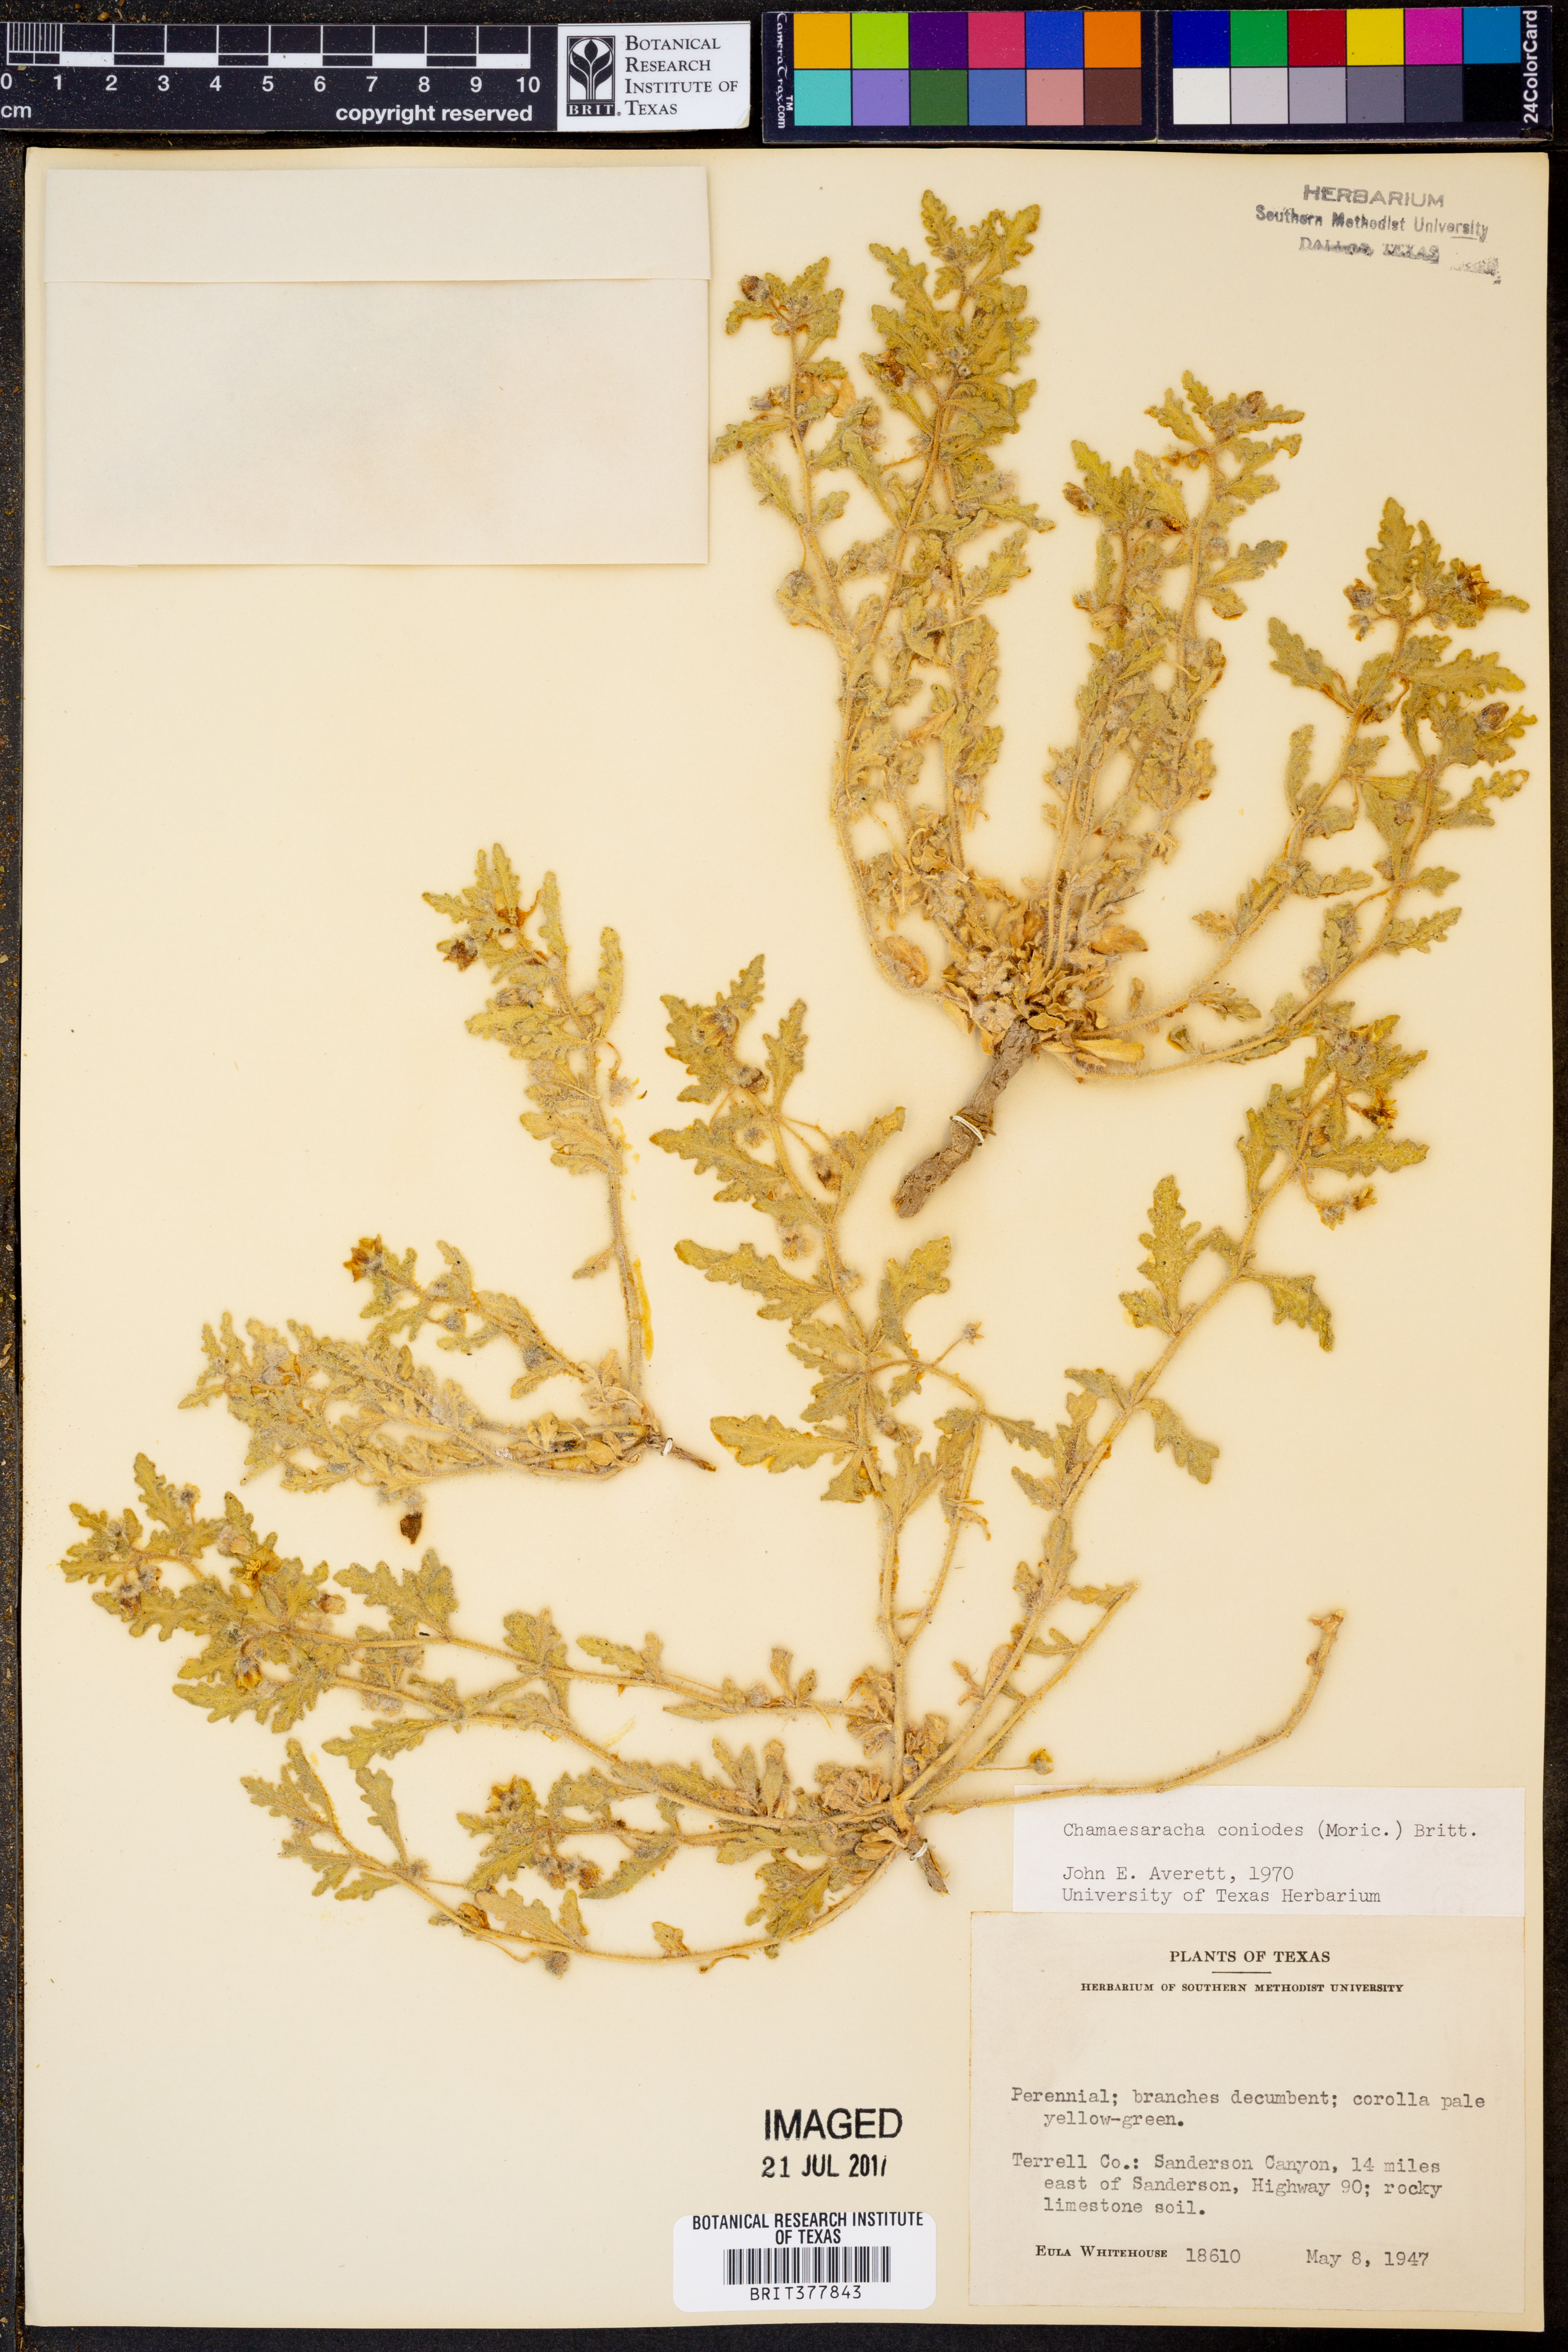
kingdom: Plantae
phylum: Tracheophyta
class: Magnoliopsida
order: Solanales
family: Solanaceae
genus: Chamaesaracha
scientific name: Chamaesaracha coniodes
